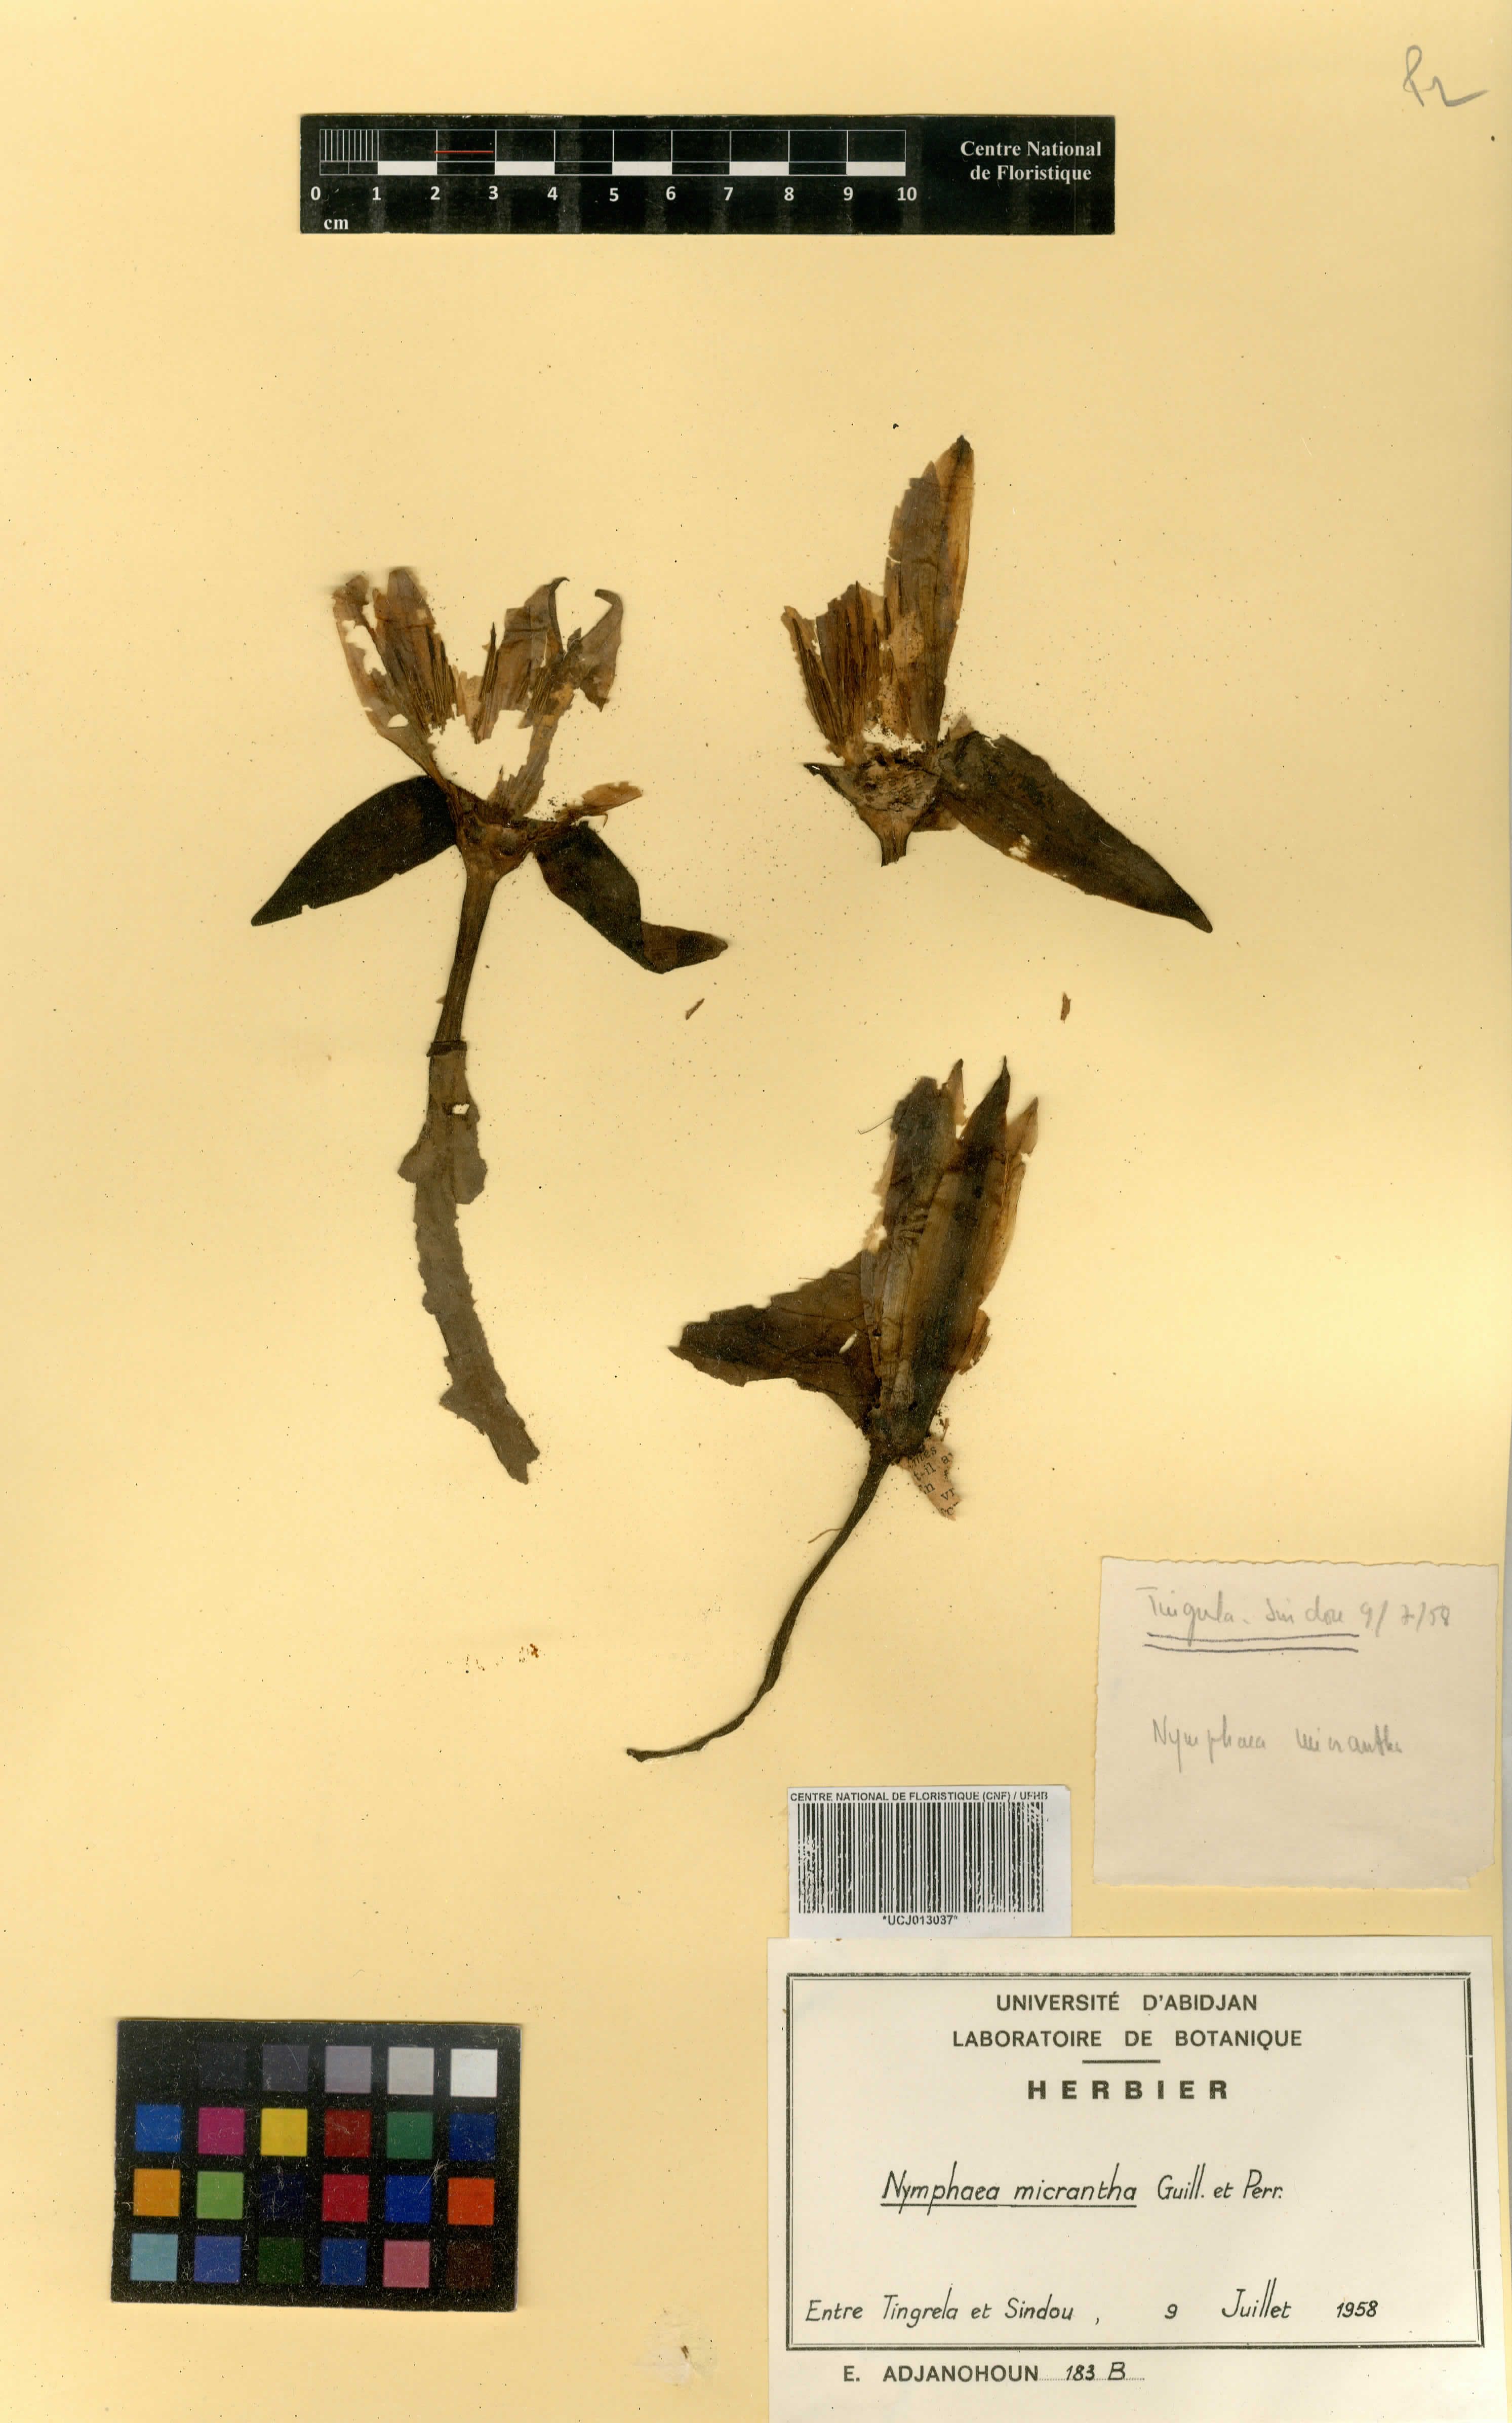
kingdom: Plantae
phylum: Tracheophyta
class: Magnoliopsida
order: Nymphaeales
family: Nymphaeaceae
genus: Nymphaea
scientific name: Nymphaea micrantha
